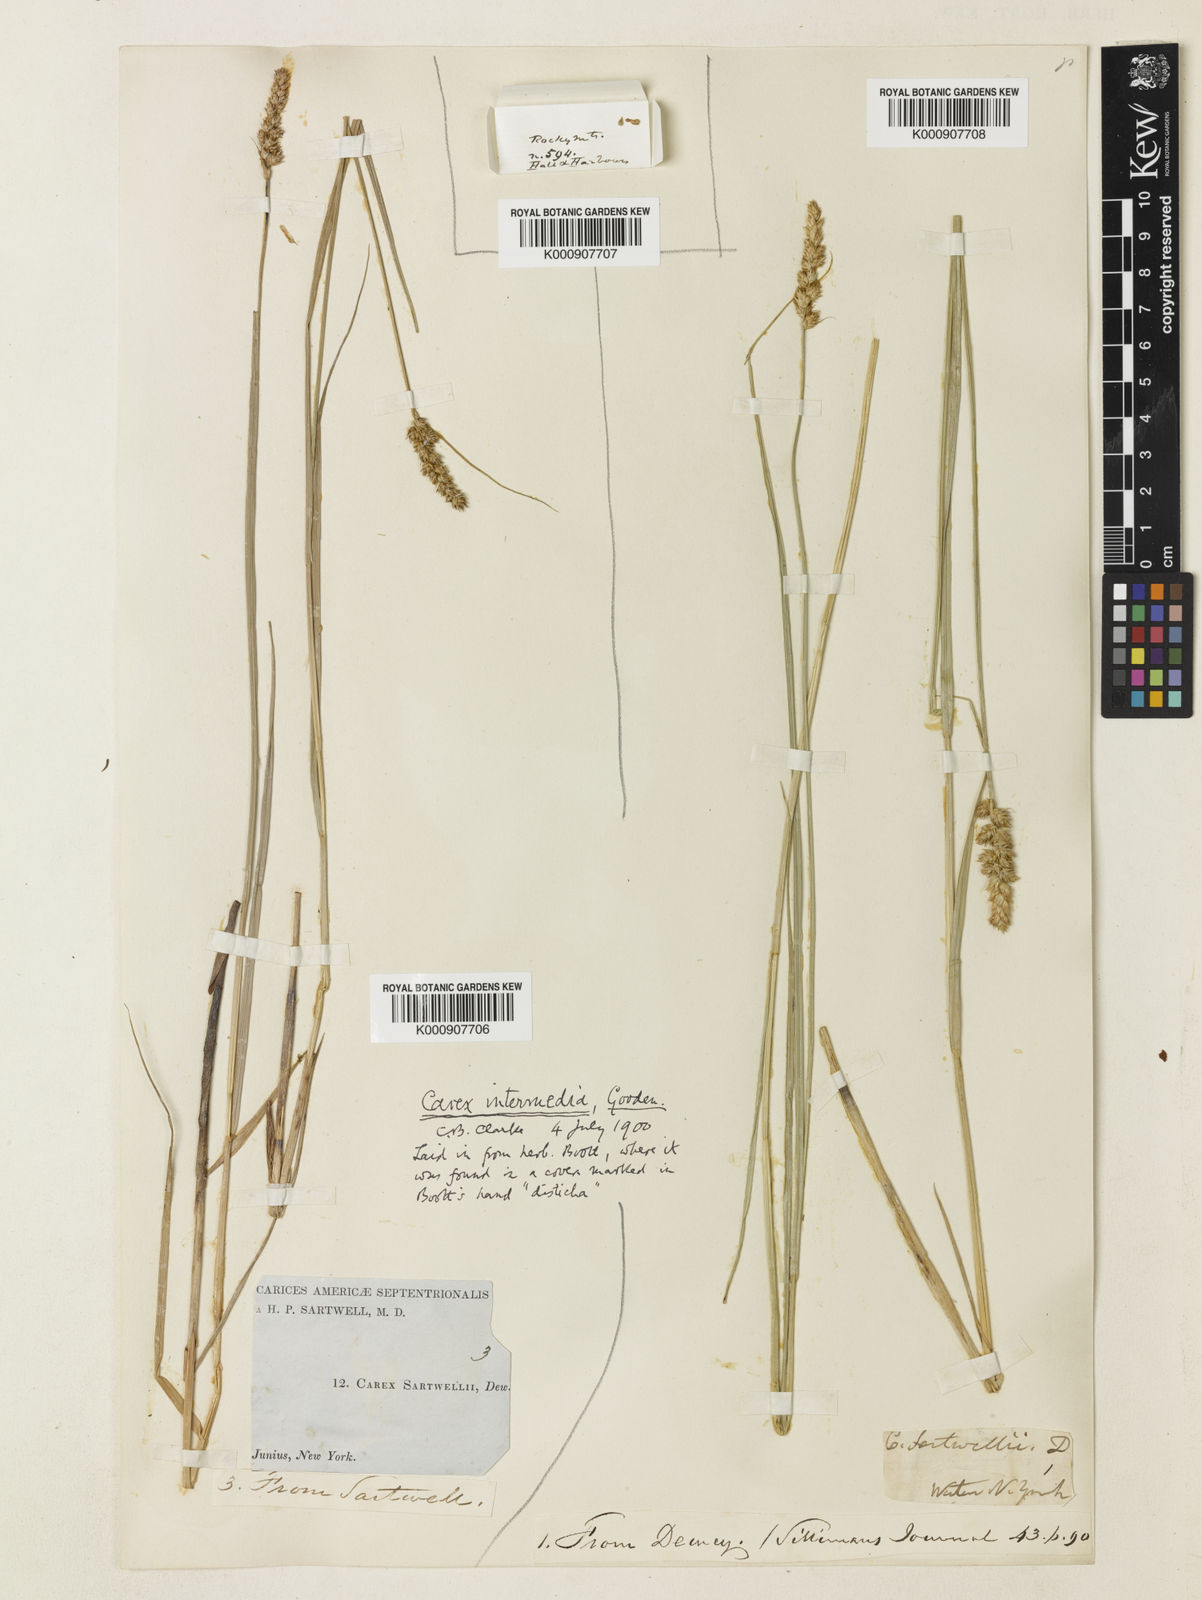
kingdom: Plantae
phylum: Tracheophyta
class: Liliopsida
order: Poales
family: Cyperaceae
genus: Carex
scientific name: Carex sartwellii
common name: Sartwell's sedge
